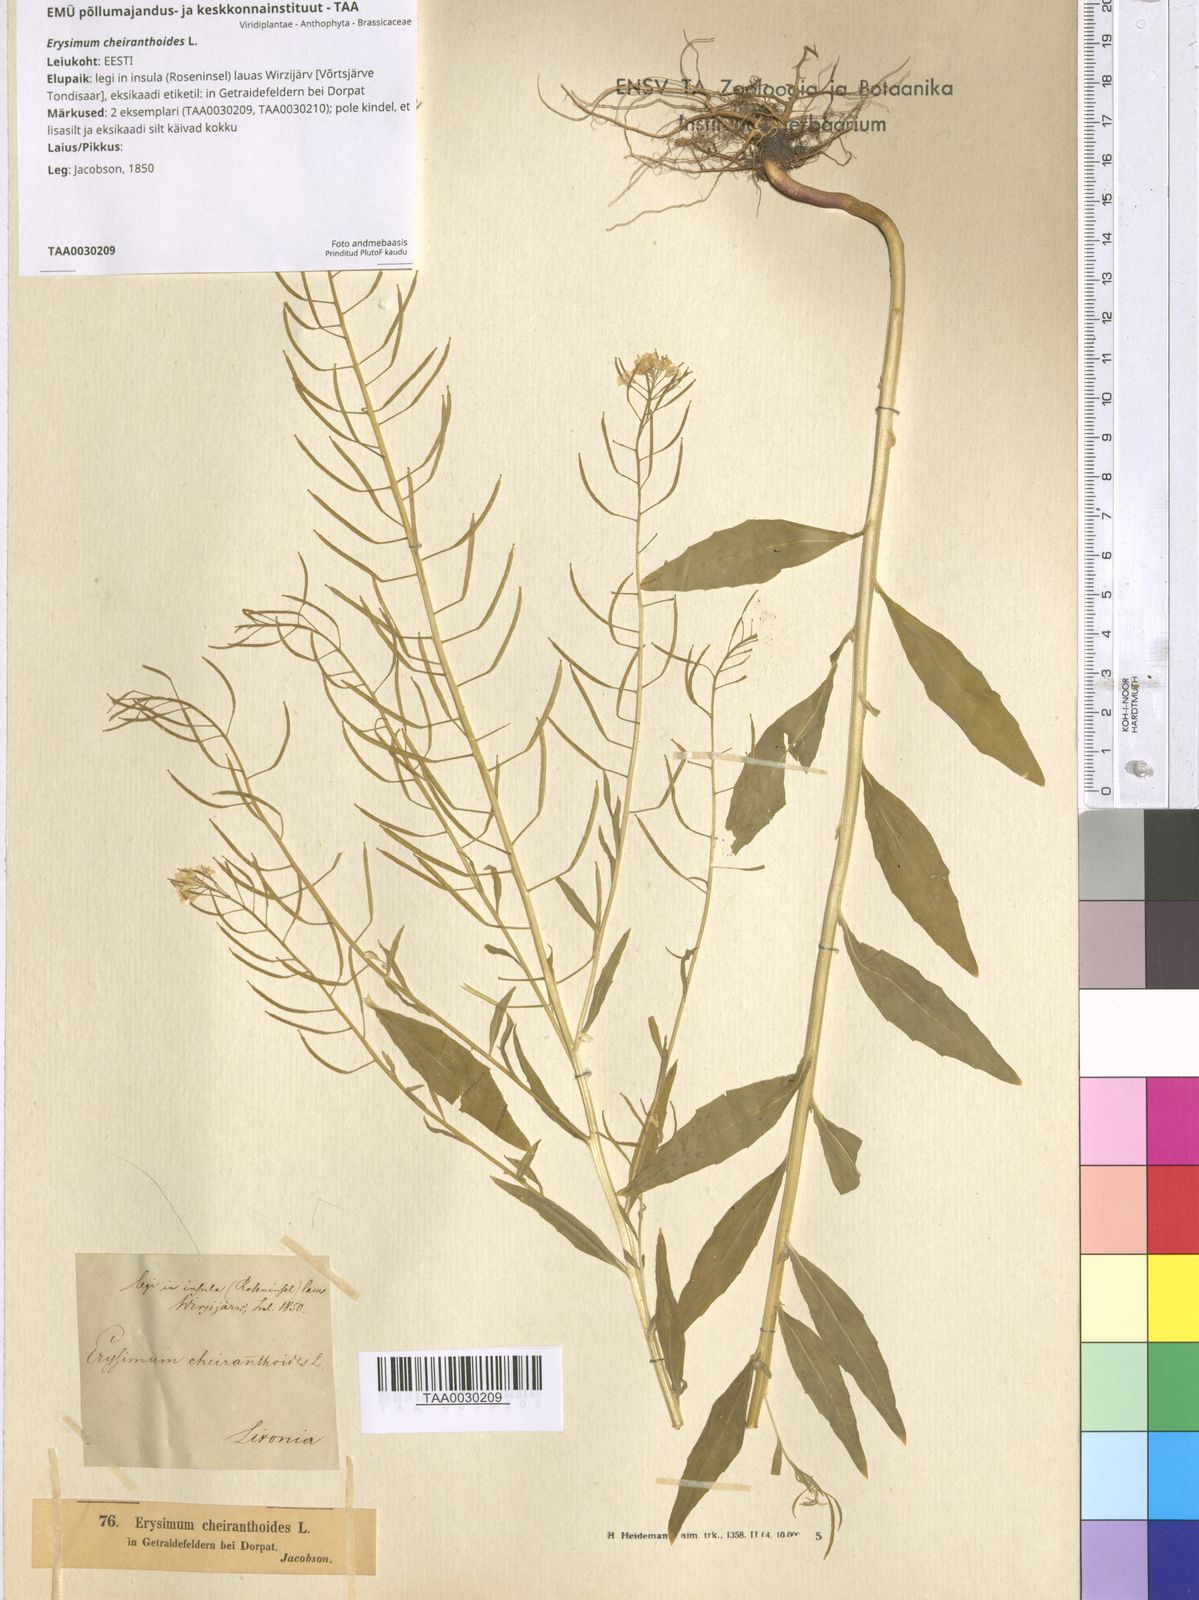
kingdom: Plantae
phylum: Tracheophyta
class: Magnoliopsida
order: Brassicales
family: Brassicaceae
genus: Erysimum
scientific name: Erysimum cheiranthoides
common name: Treacle mustard
